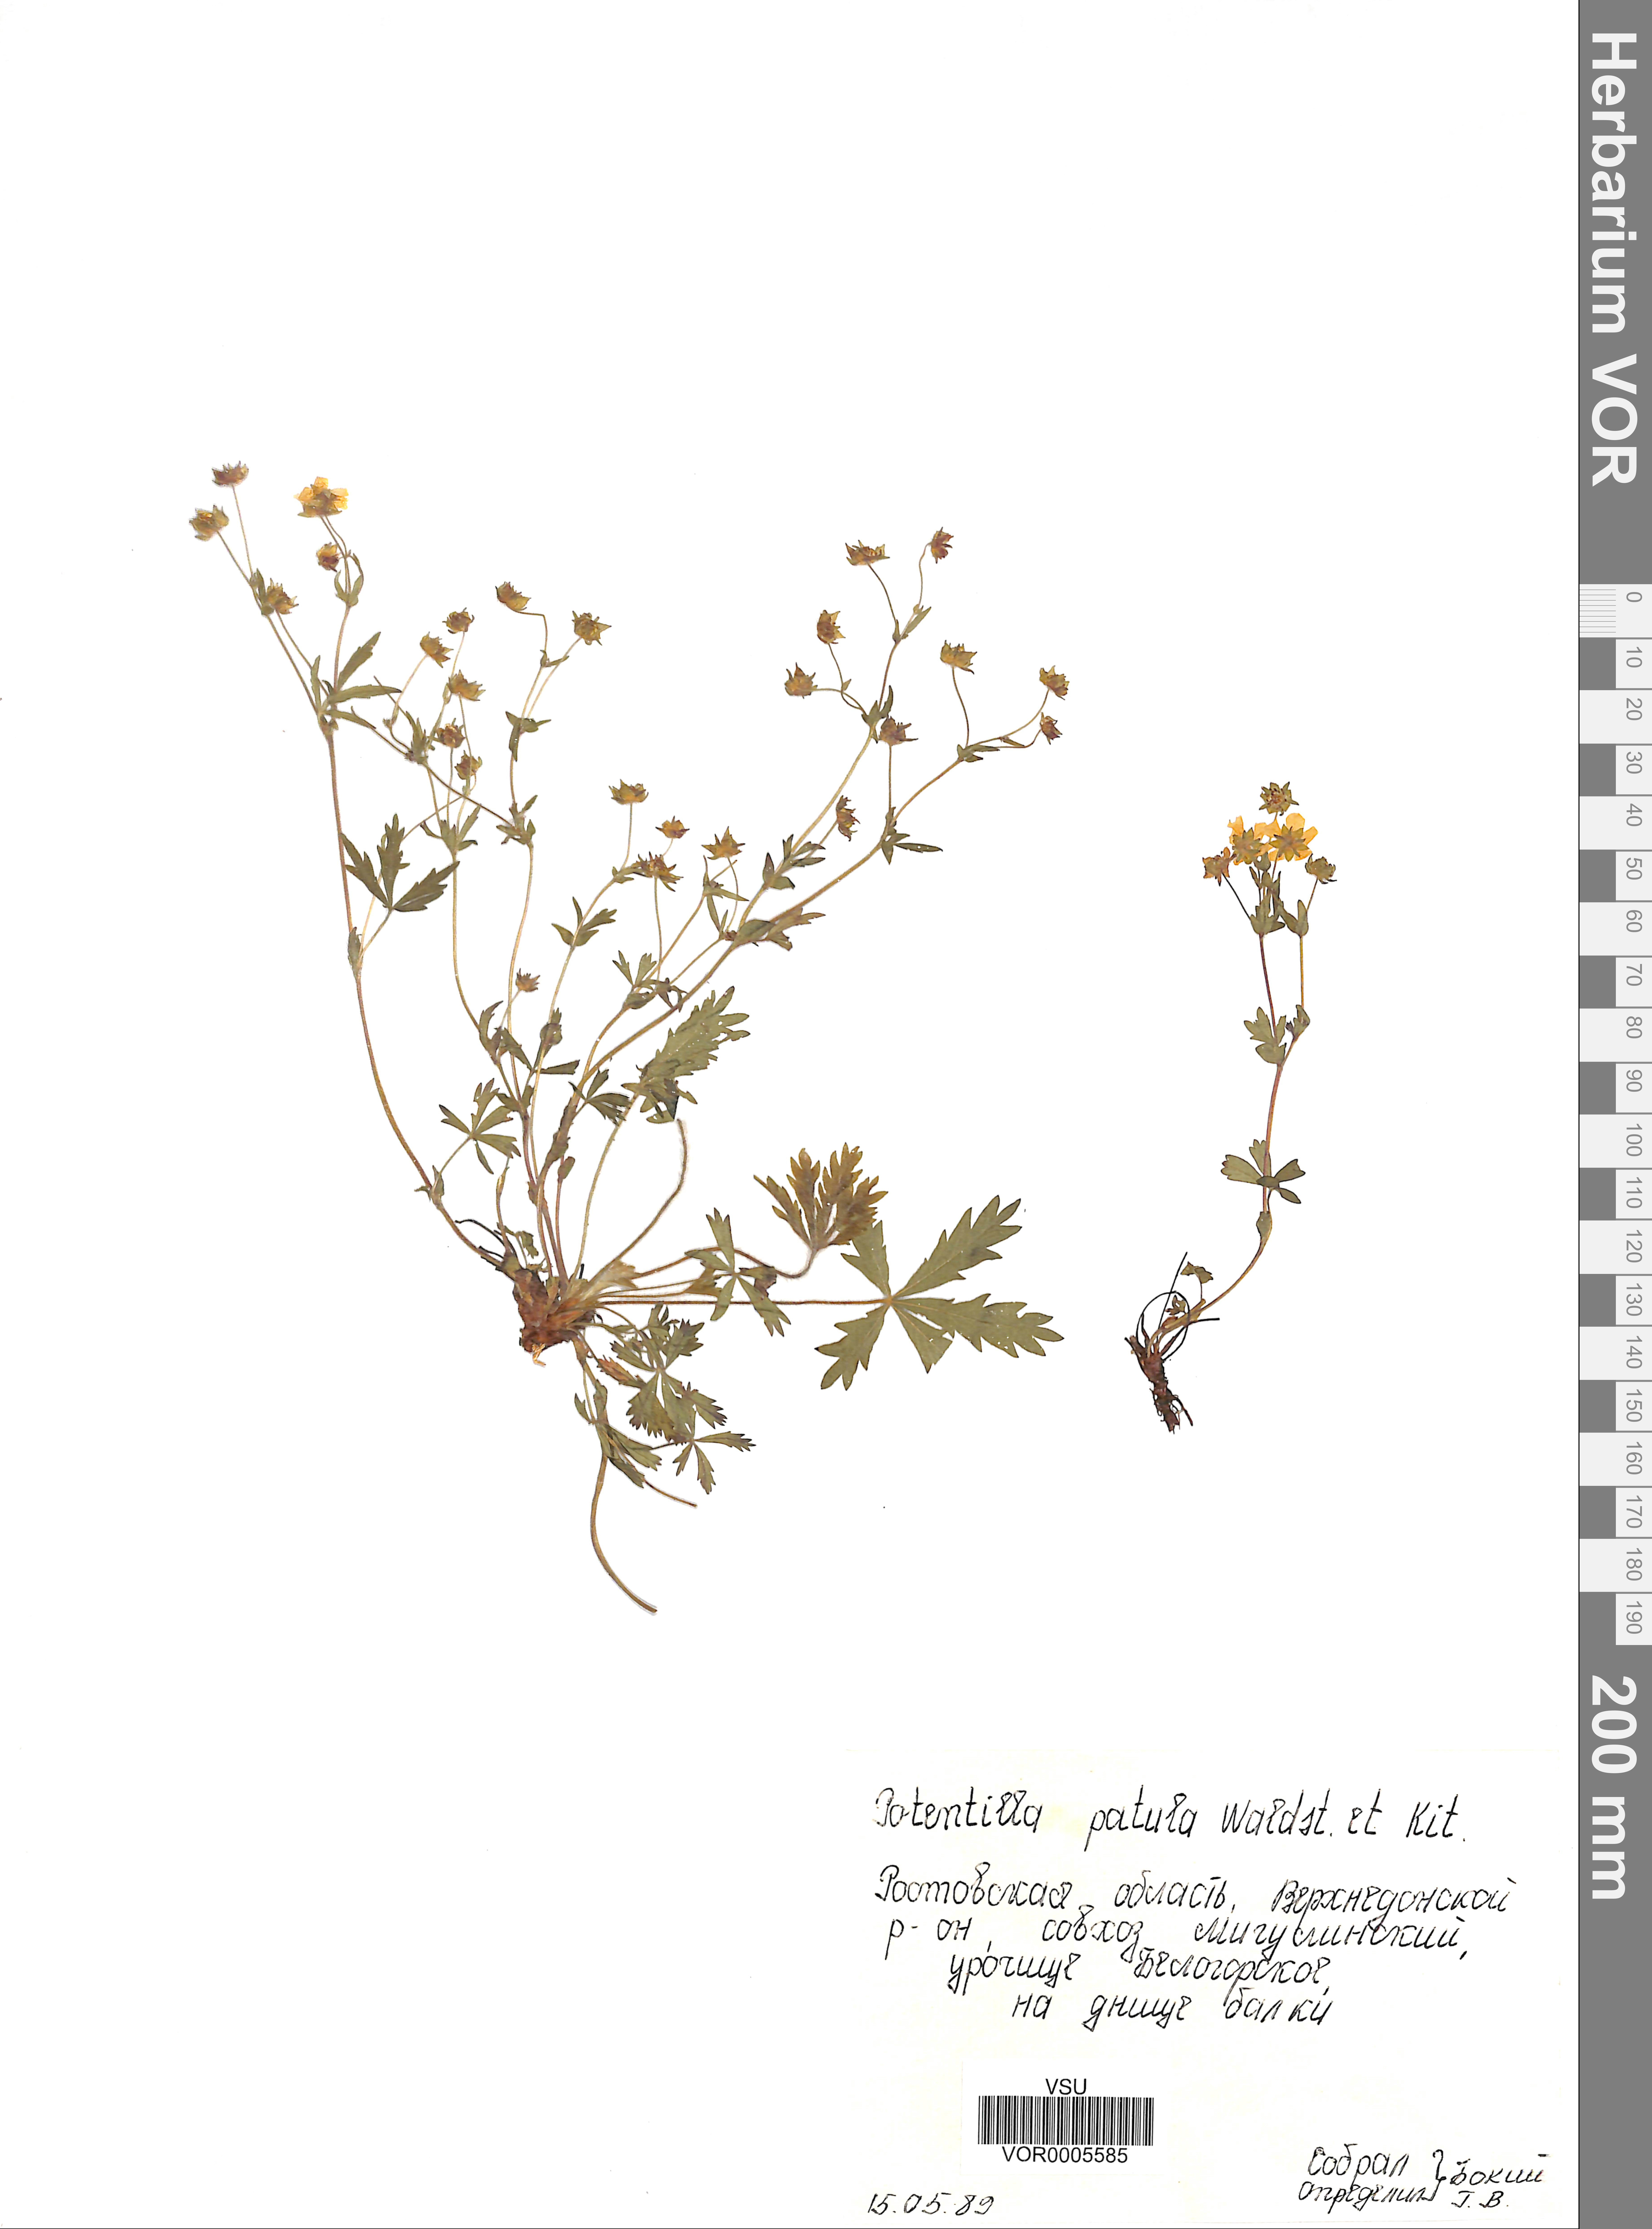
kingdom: Plantae
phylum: Tracheophyta
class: Magnoliopsida
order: Rosales
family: Rosaceae
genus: Potentilla
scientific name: Potentilla patula
